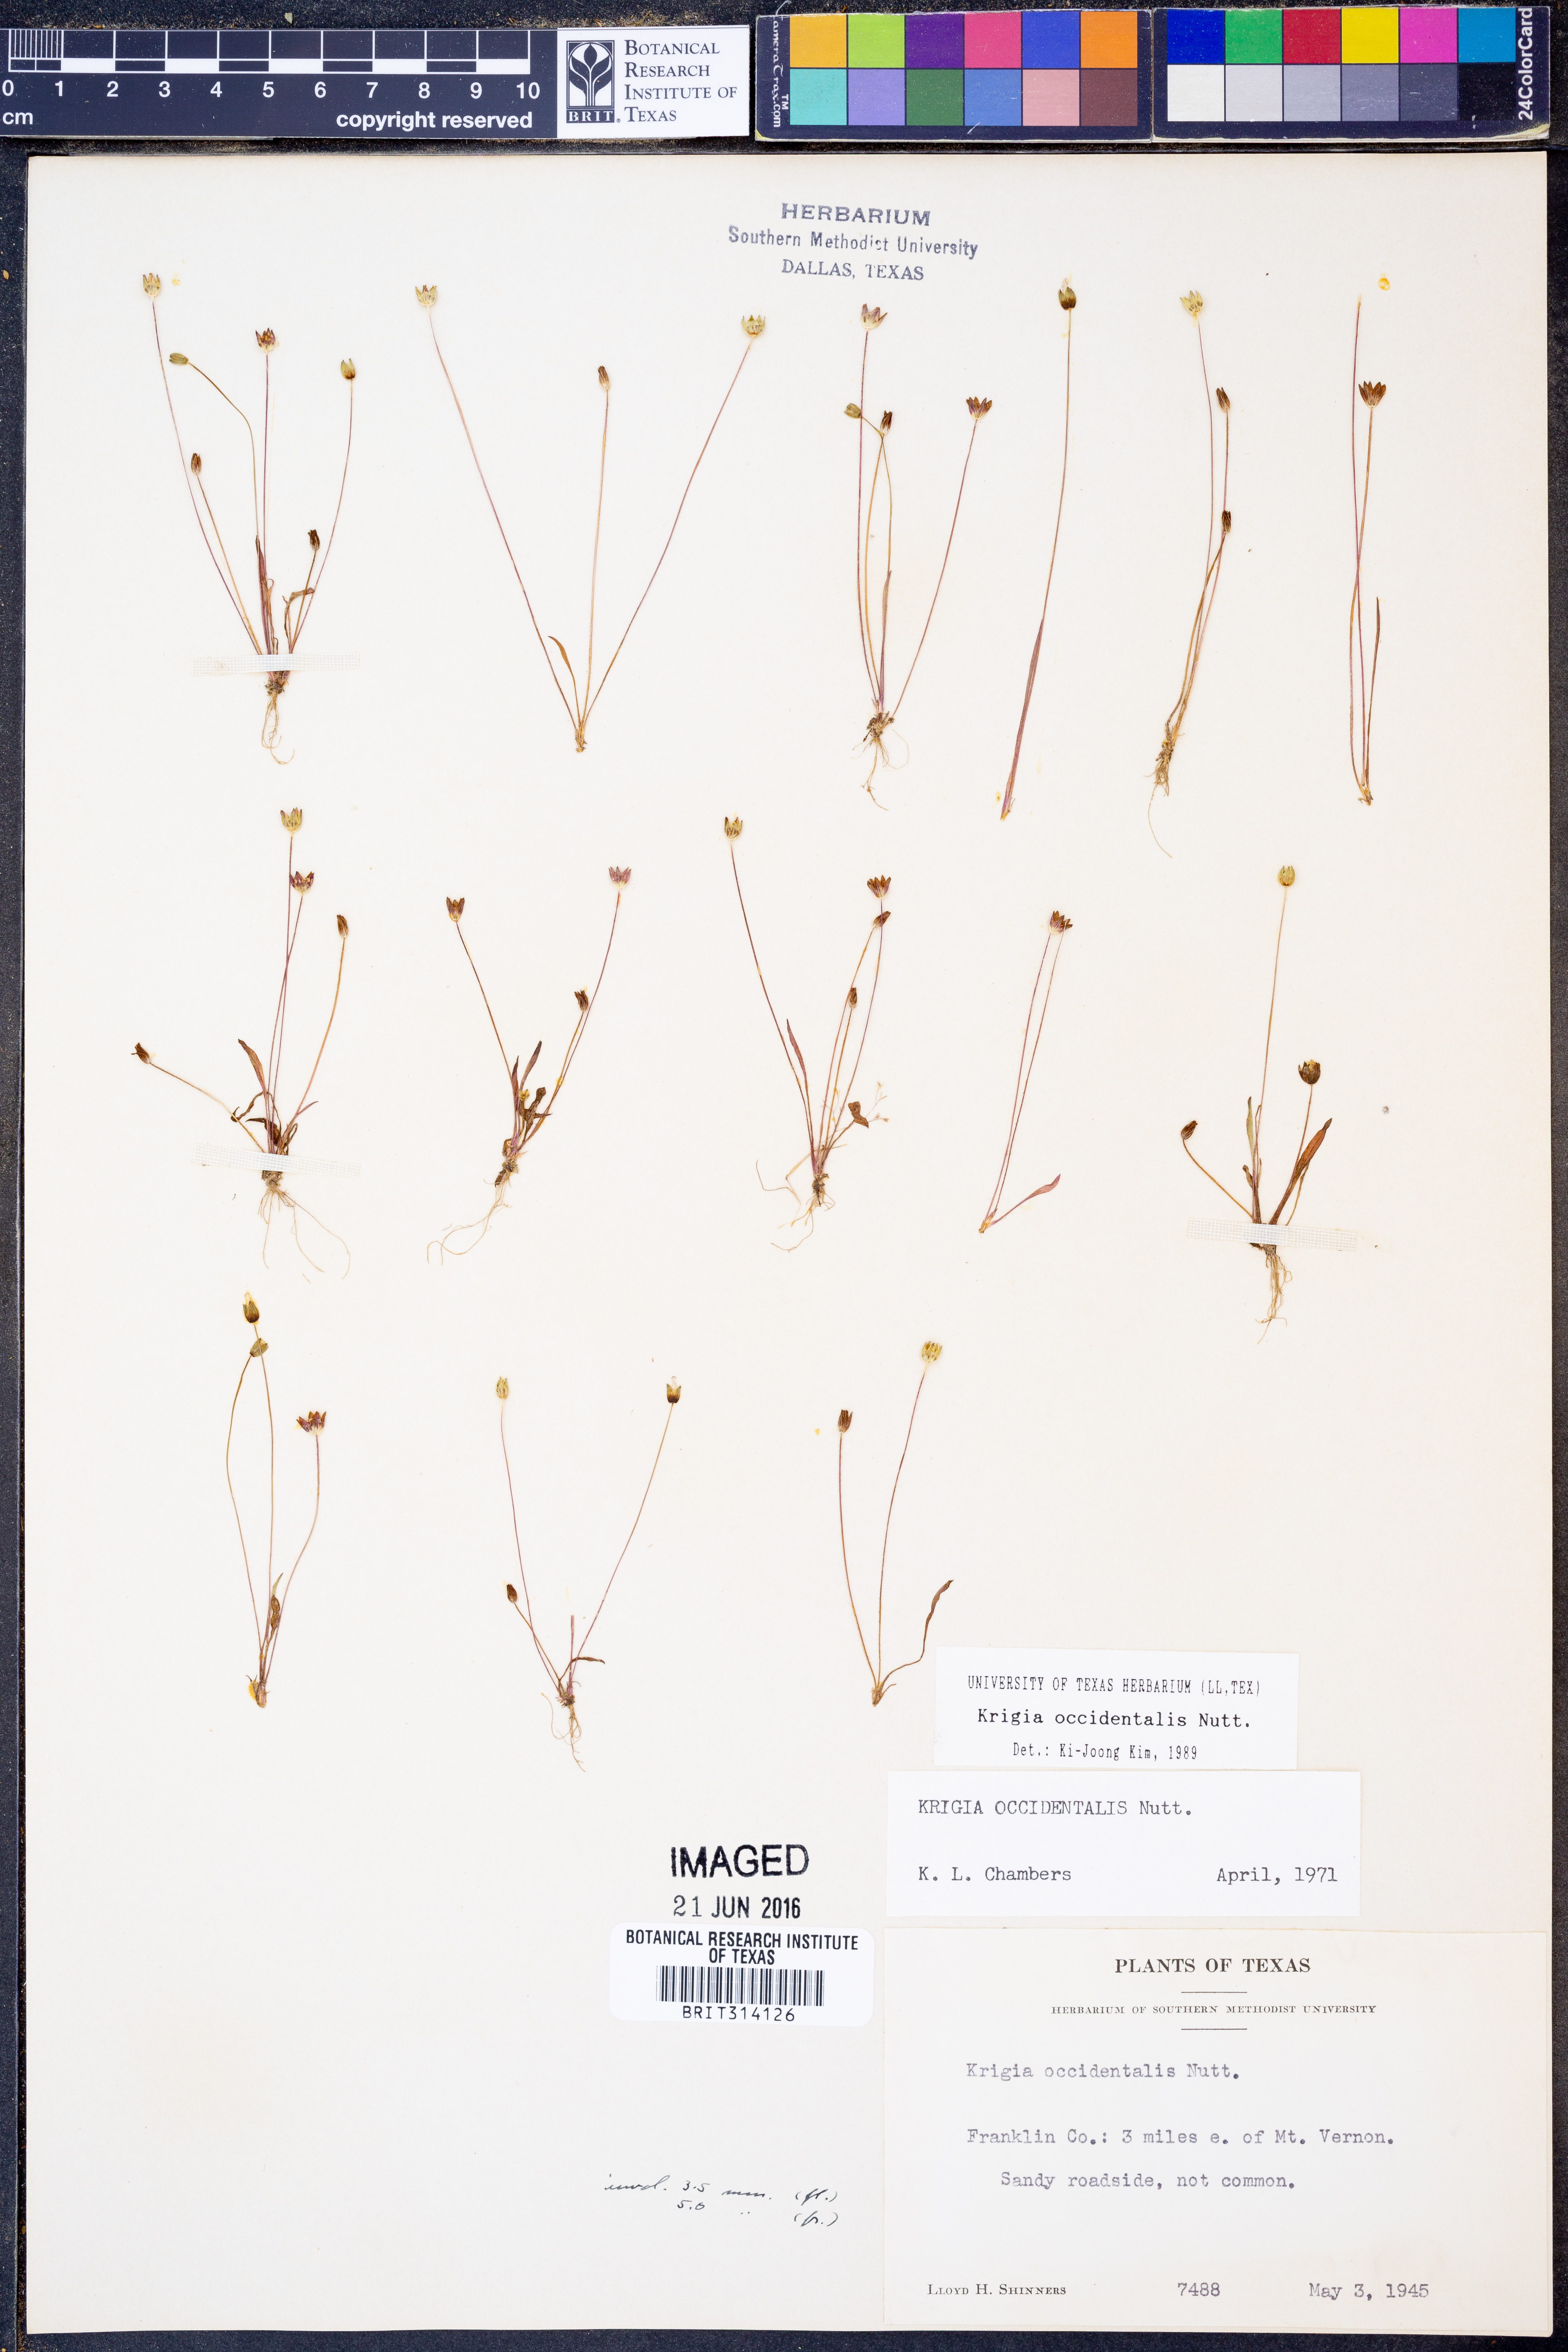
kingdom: Plantae
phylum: Tracheophyta
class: Magnoliopsida
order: Asterales
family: Asteraceae
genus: Krigia
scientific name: Krigia occidentalis
